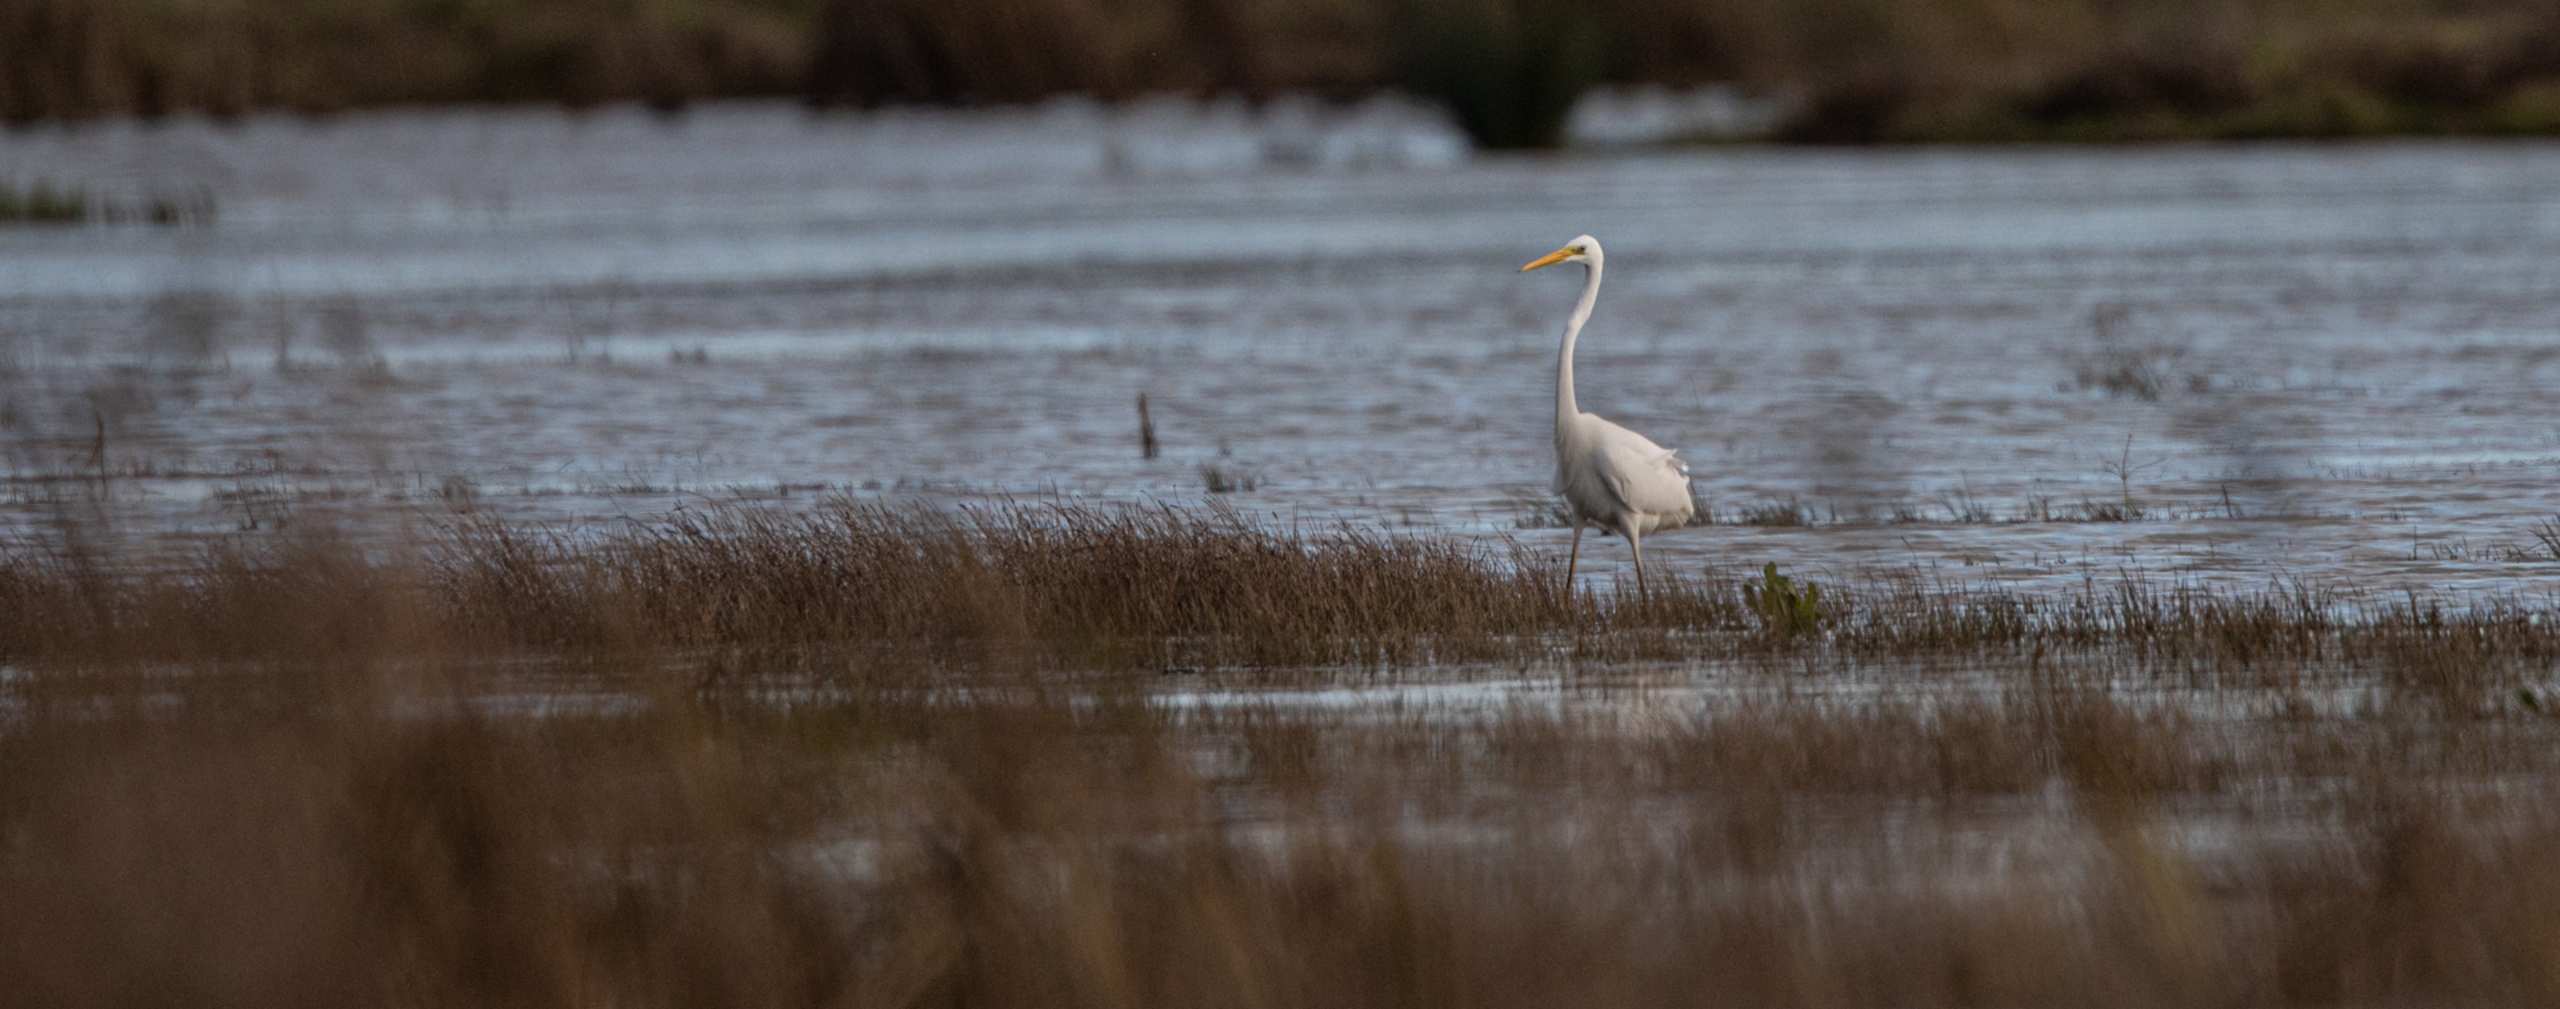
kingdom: Animalia
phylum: Chordata
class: Aves
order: Pelecaniformes
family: Ardeidae
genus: Ardea
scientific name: Ardea alba
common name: Sølvhejre
